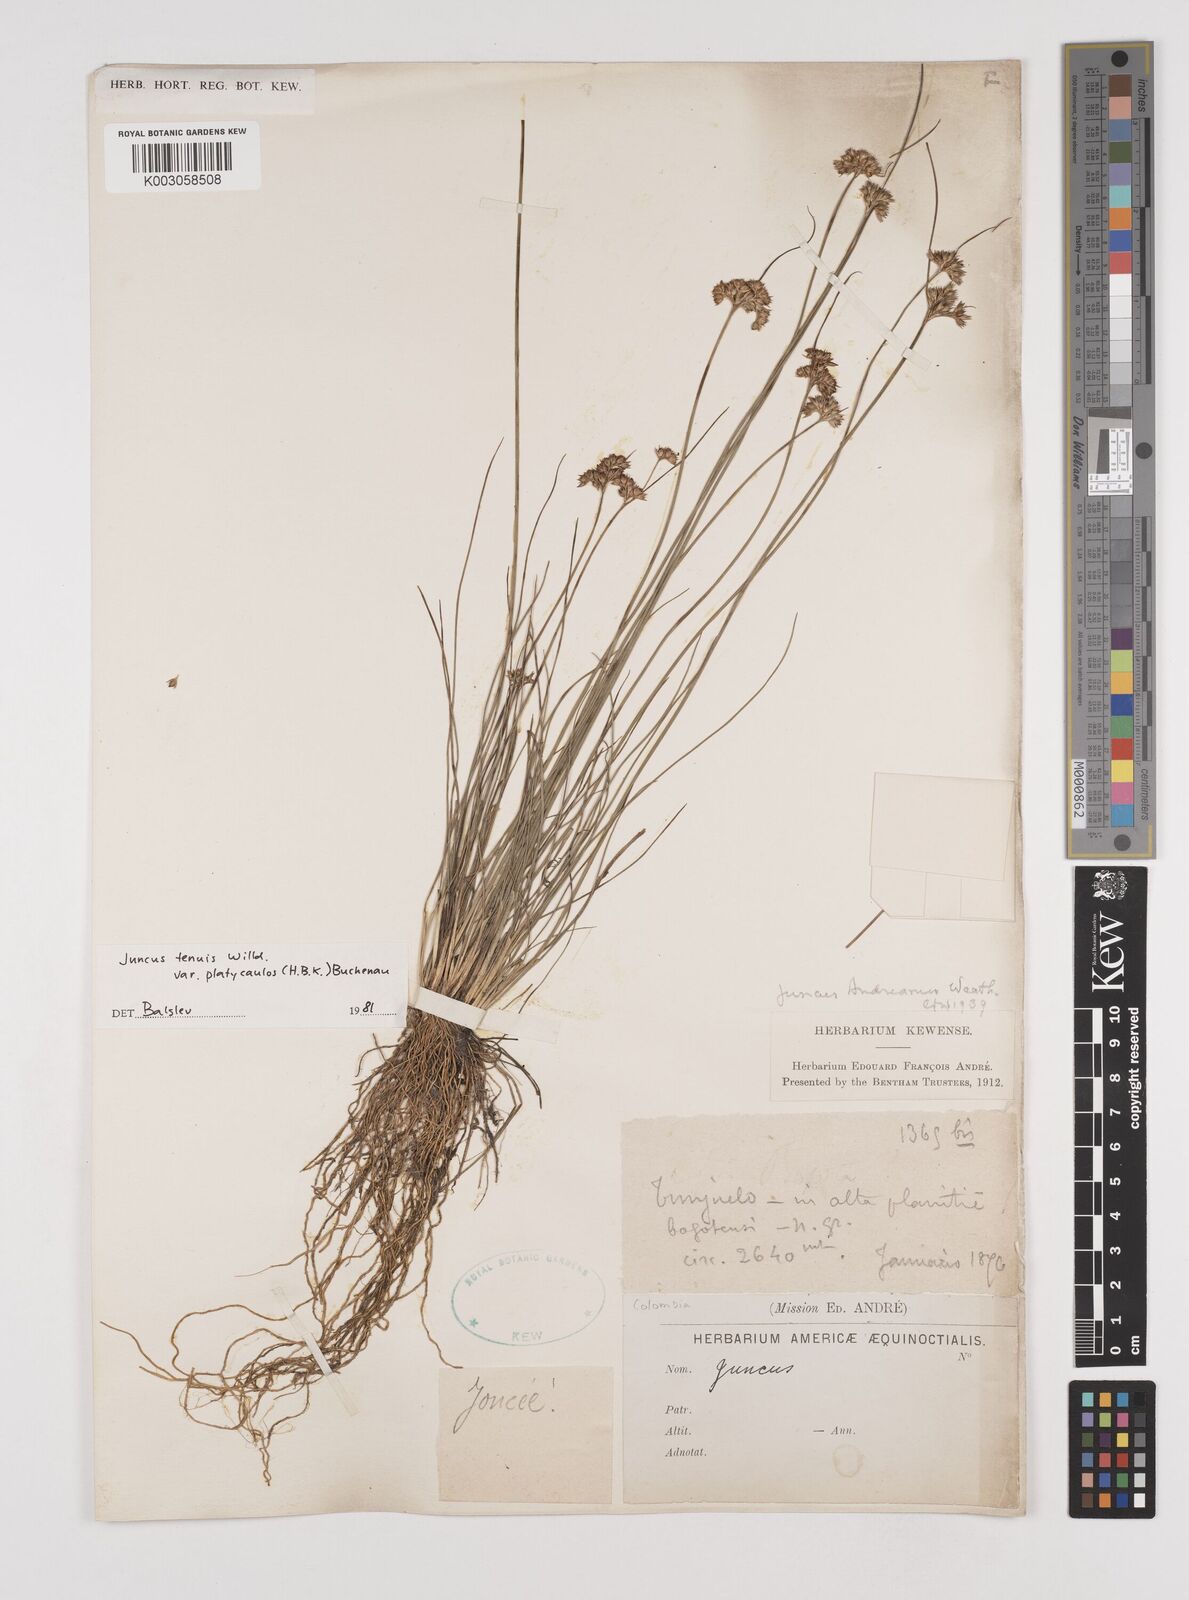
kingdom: Plantae
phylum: Tracheophyta
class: Liliopsida
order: Poales
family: Juncaceae
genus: Juncus
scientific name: Juncus dudleyi
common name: Dudley's rush
